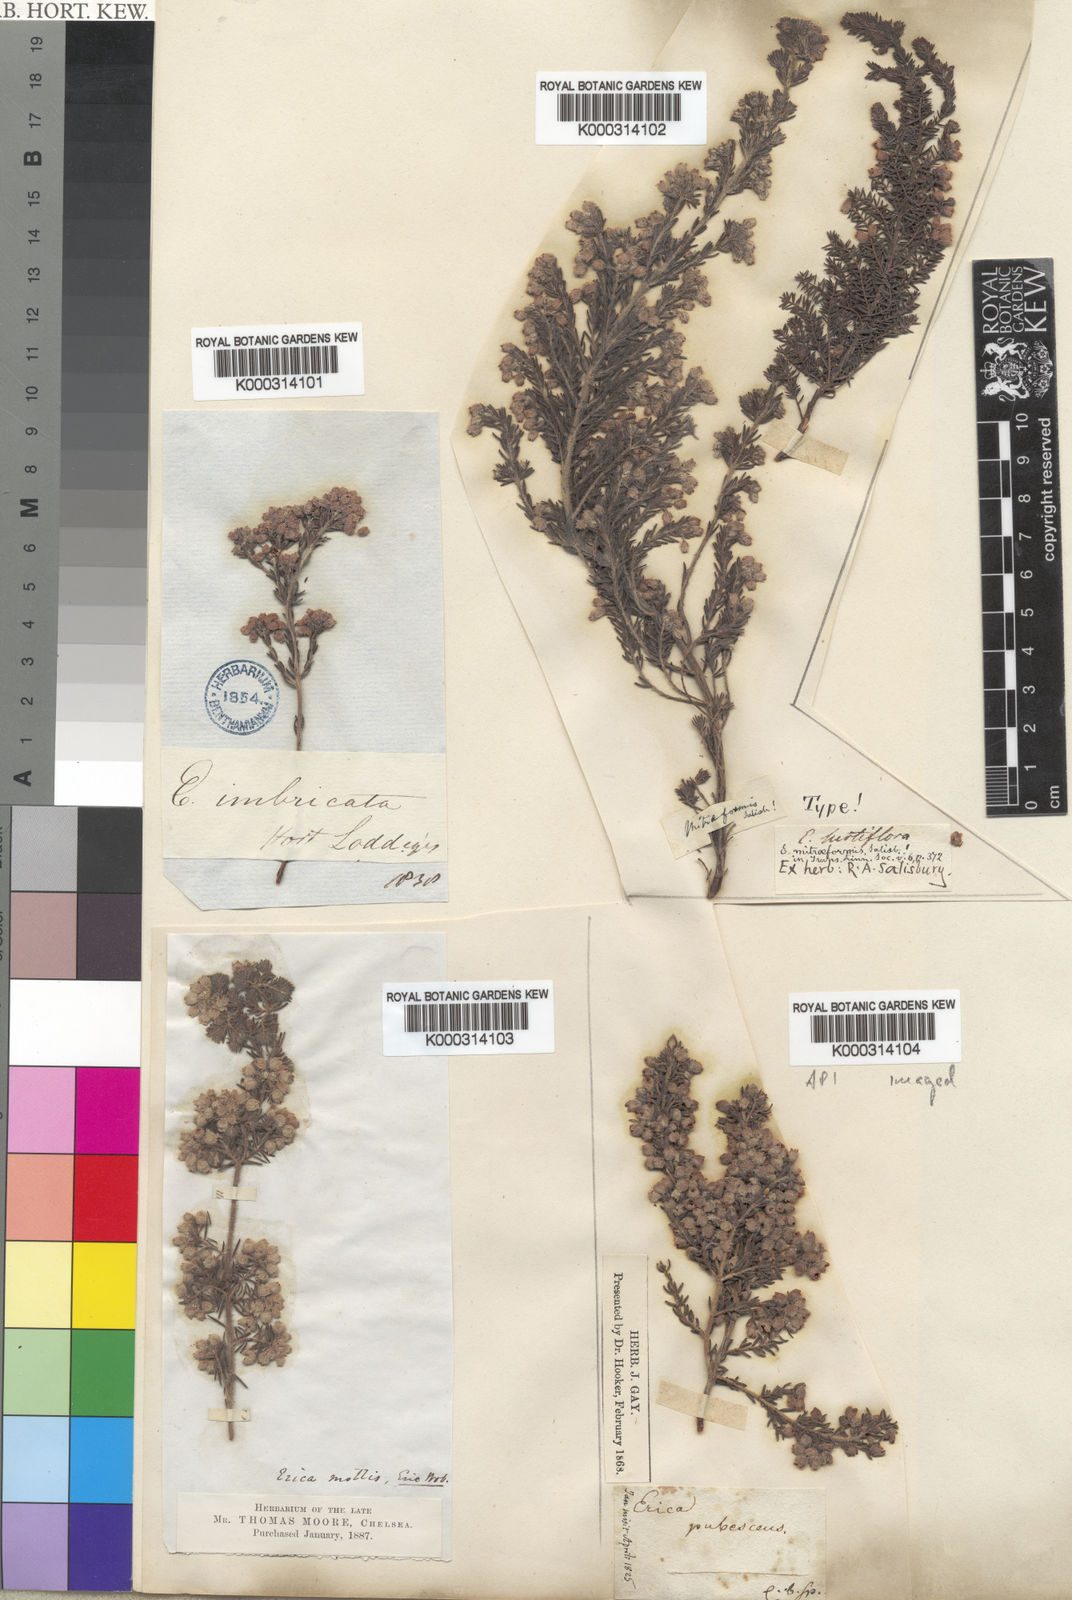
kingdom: Plantae
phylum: Tracheophyta
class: Magnoliopsida
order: Ericales
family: Ericaceae
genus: Erica
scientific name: Erica hirtiflora
